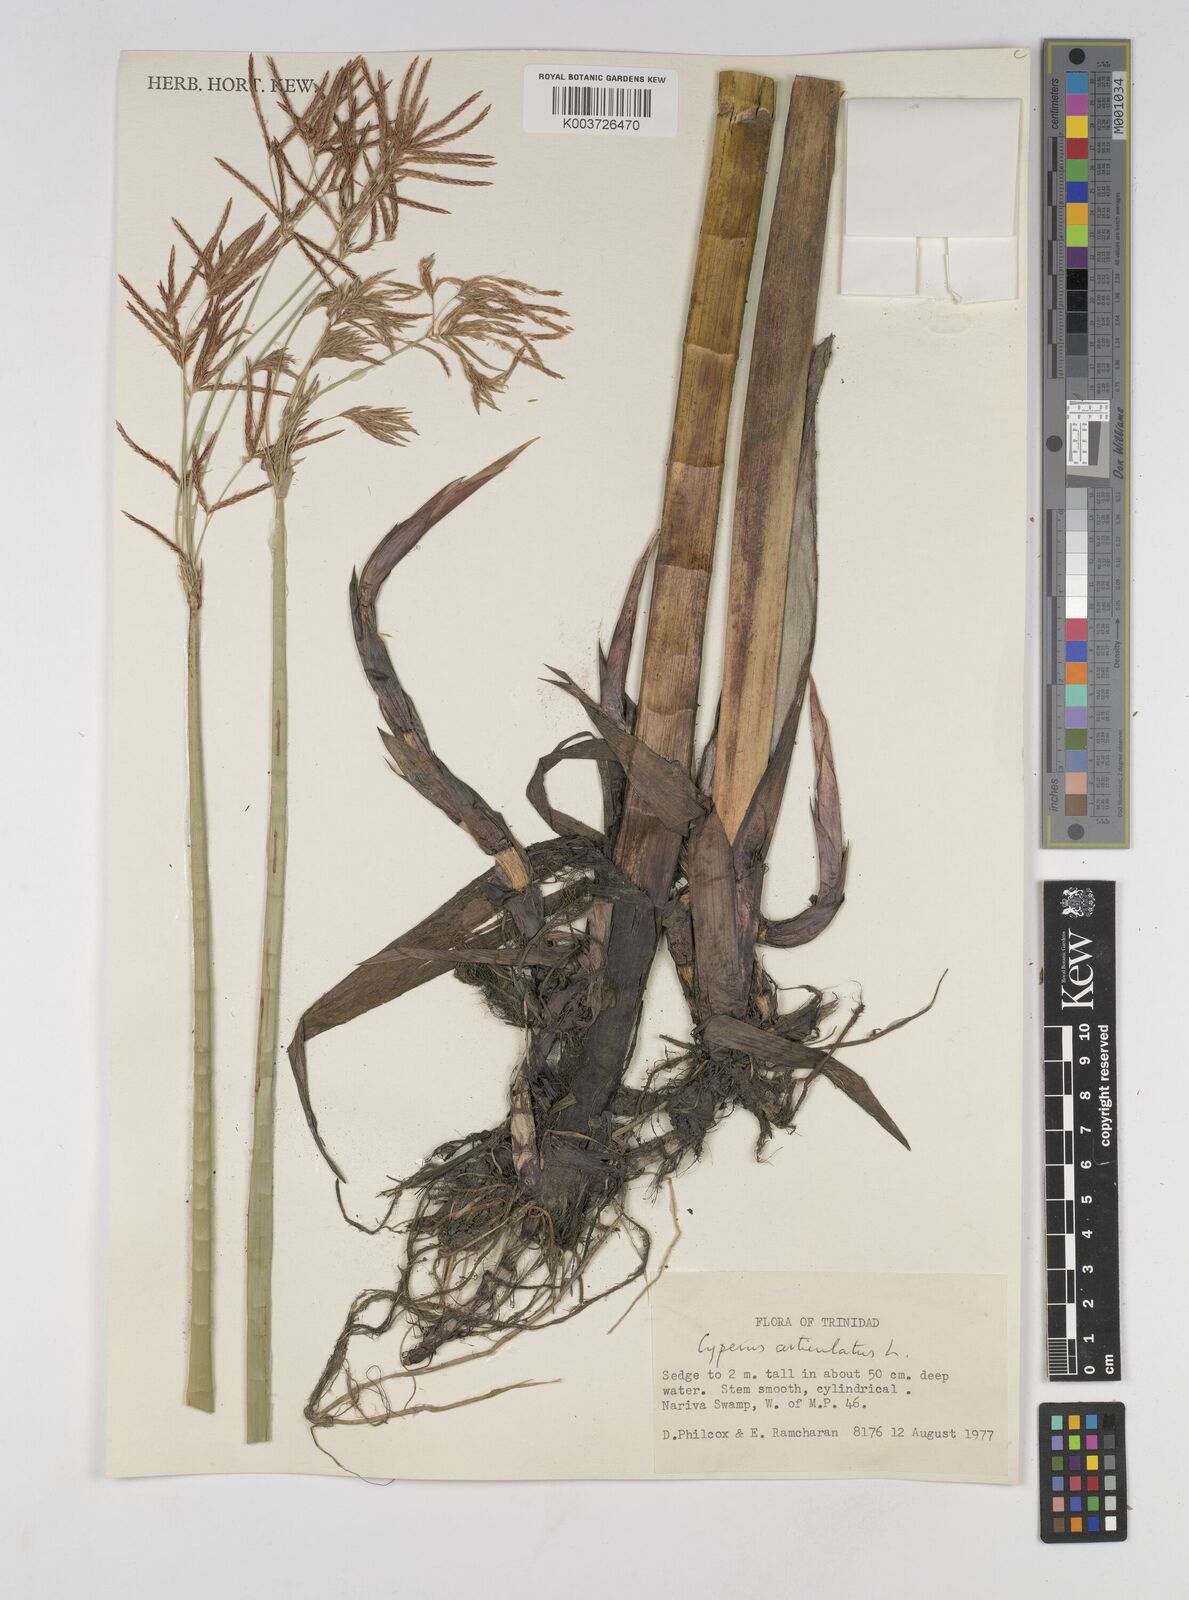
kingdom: Plantae
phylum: Tracheophyta
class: Liliopsida
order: Poales
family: Cyperaceae
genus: Cyperus
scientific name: Cyperus articulatus
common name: Jointed flatsedge
